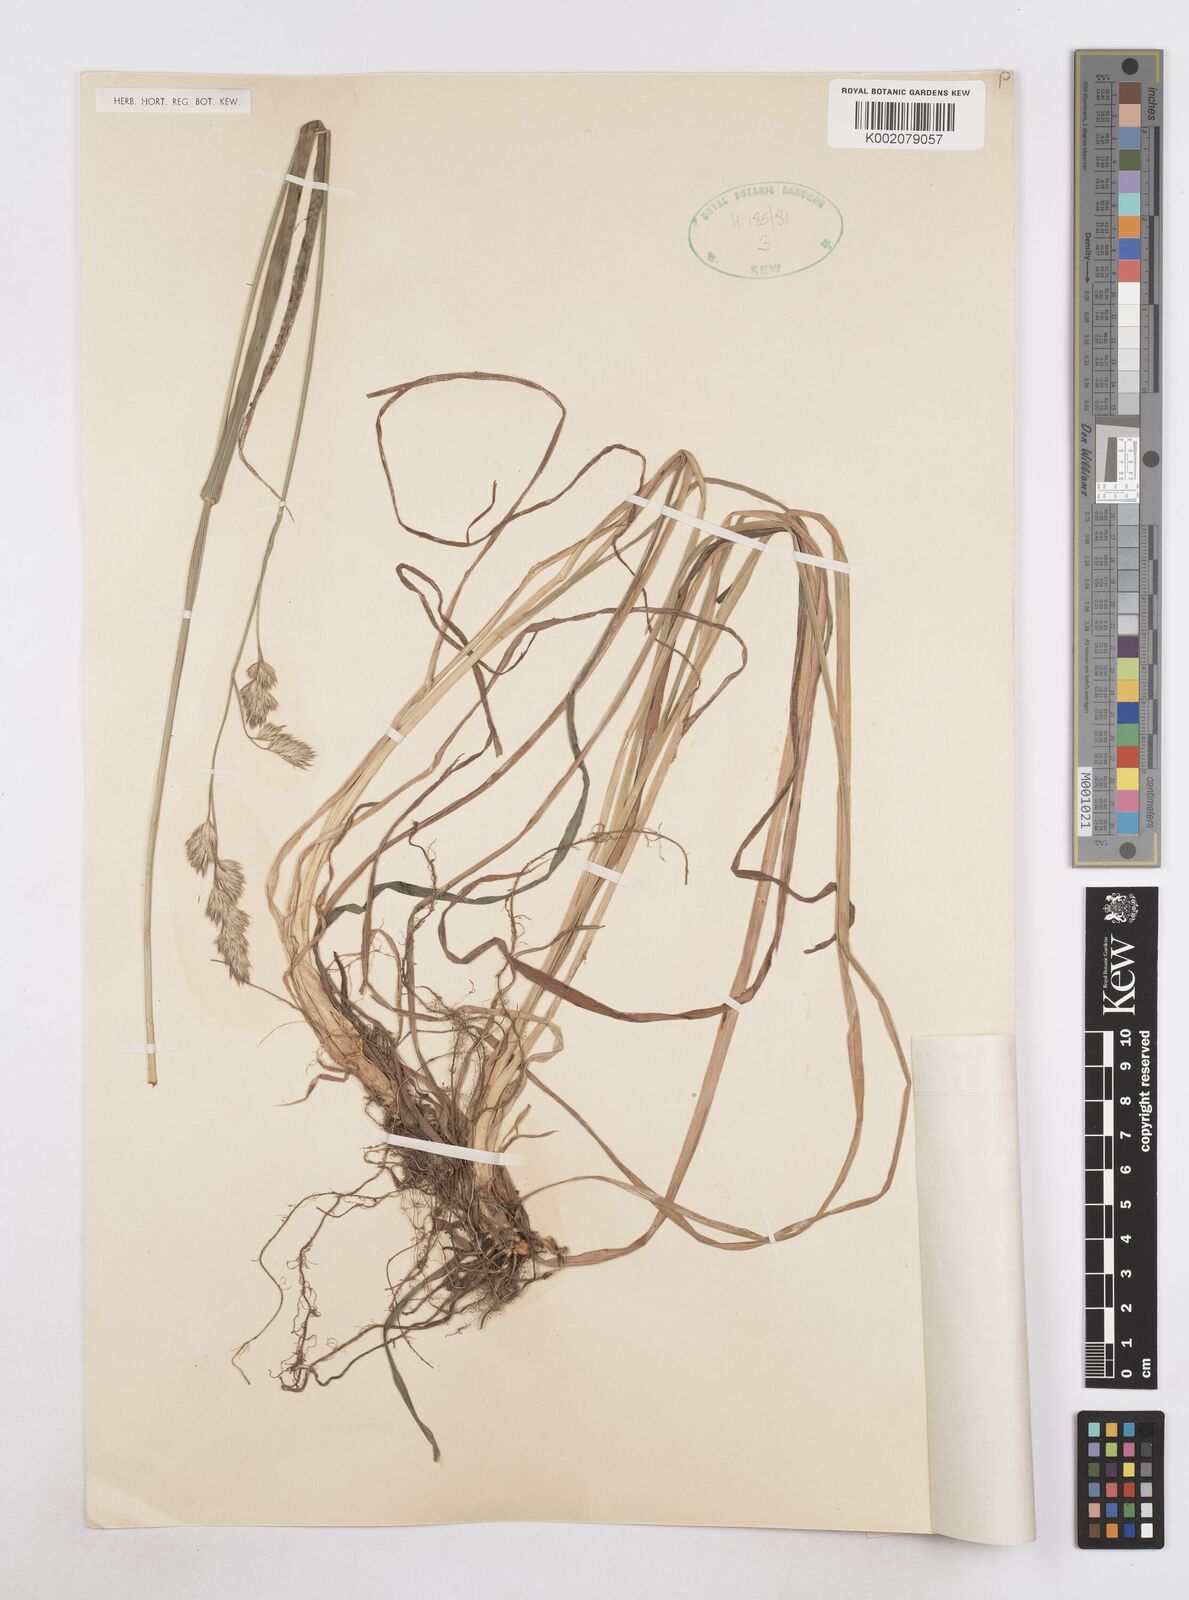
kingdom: Plantae
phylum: Tracheophyta
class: Liliopsida
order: Poales
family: Poaceae
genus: Dactylis
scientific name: Dactylis glomerata
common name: Orchardgrass
